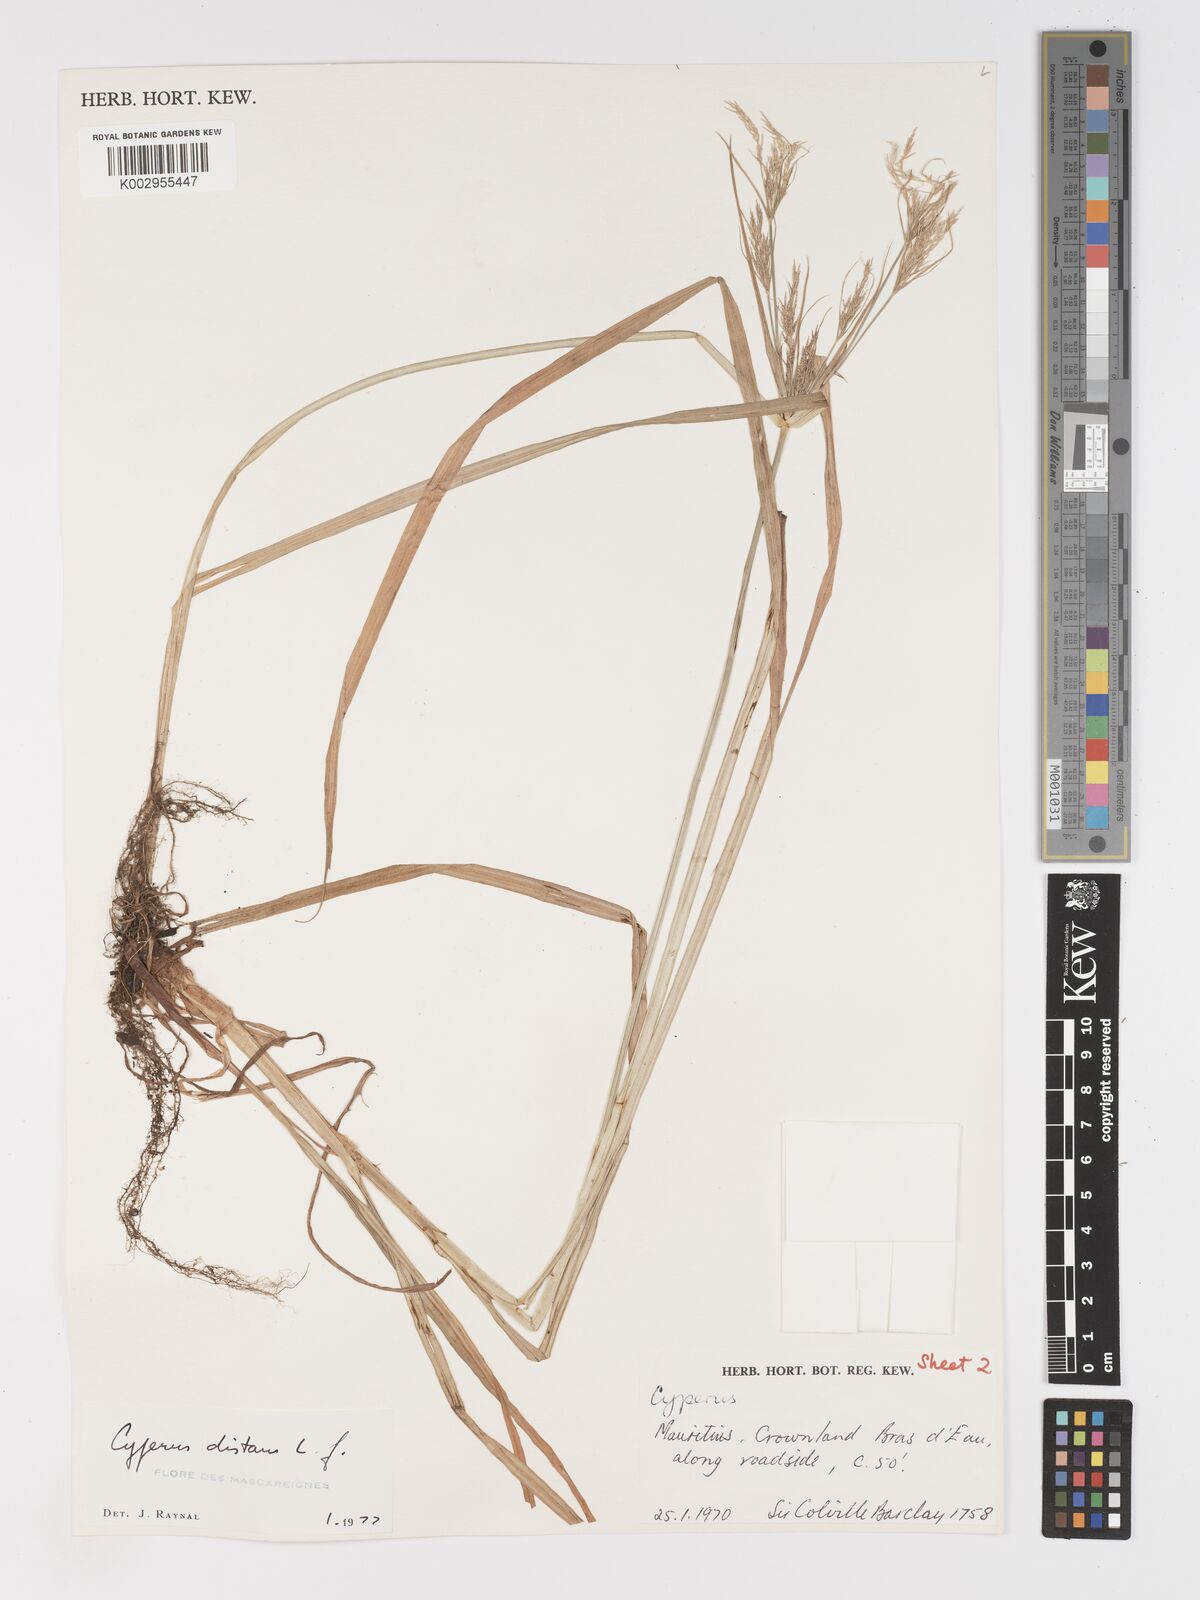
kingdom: Plantae
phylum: Tracheophyta
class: Liliopsida
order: Poales
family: Cyperaceae
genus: Cyperus
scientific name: Cyperus distans
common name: Slender cyperus
